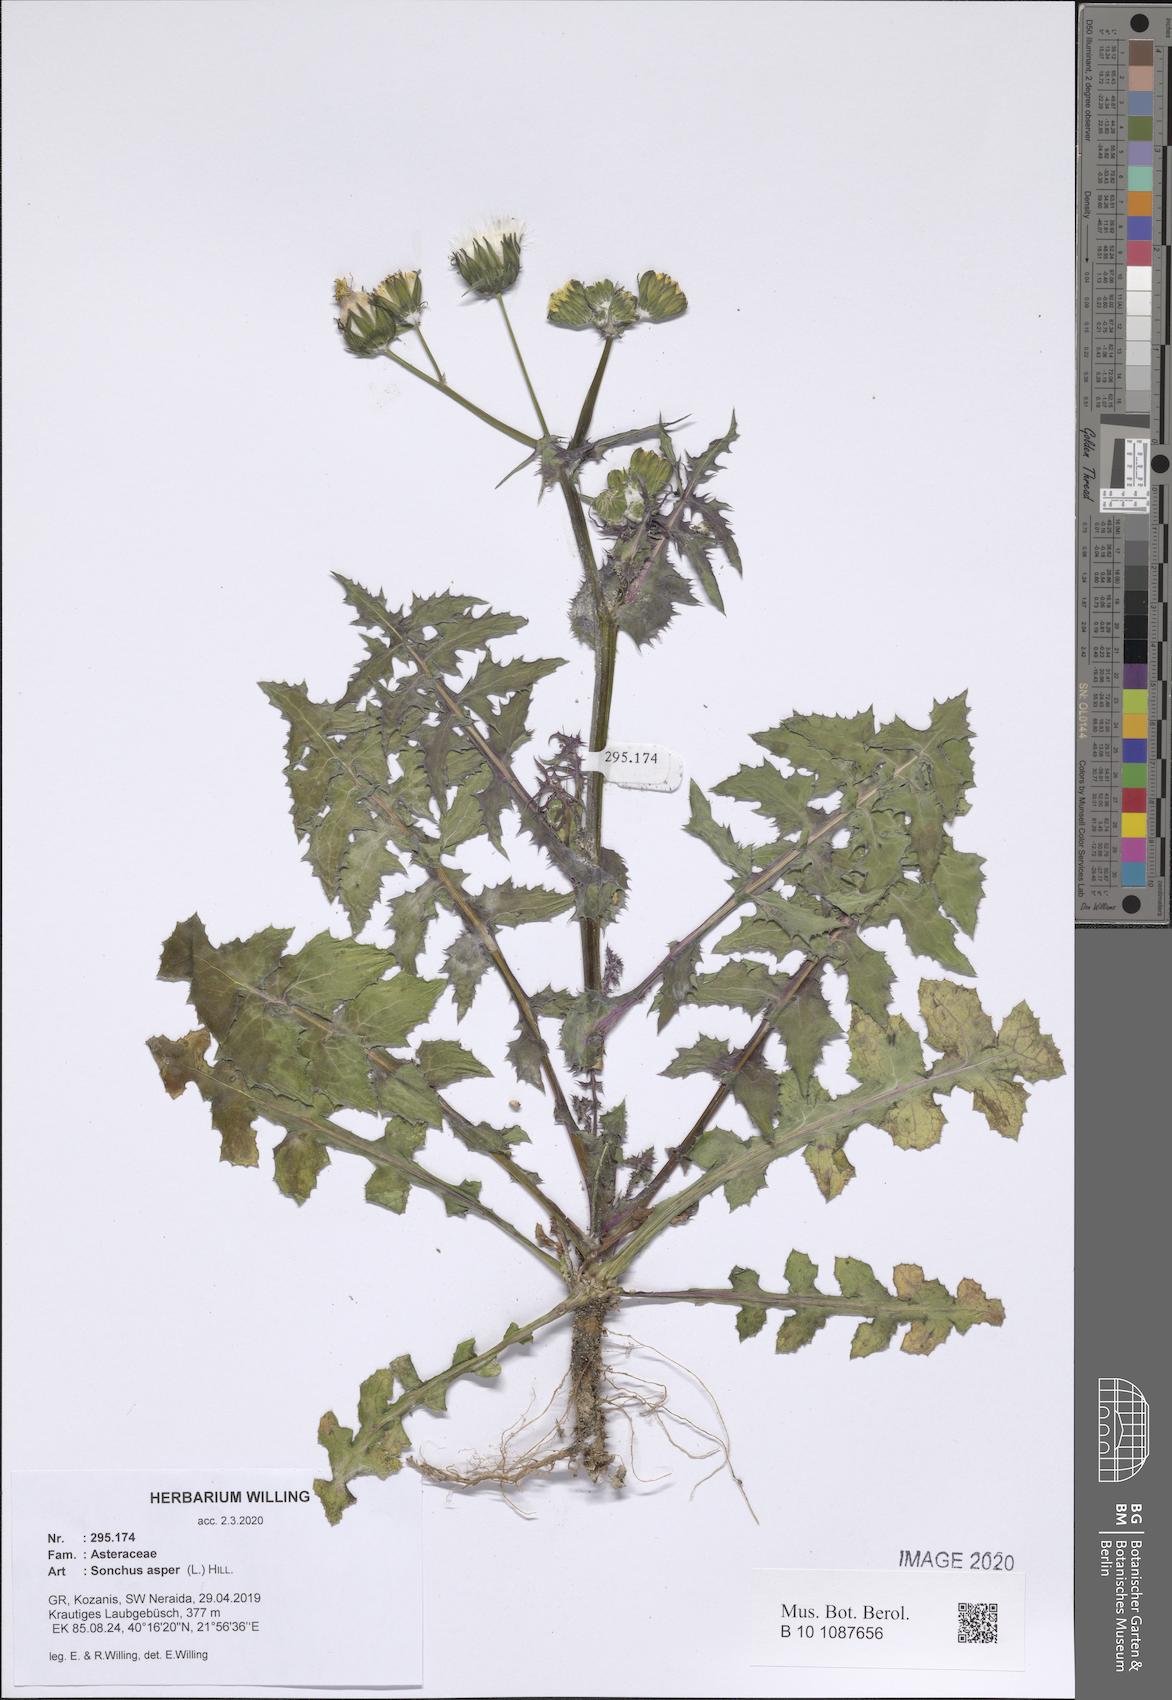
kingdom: Plantae
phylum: Tracheophyta
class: Magnoliopsida
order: Asterales
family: Asteraceae
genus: Sonchus
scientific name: Sonchus asper
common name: Prickly sow-thistle
